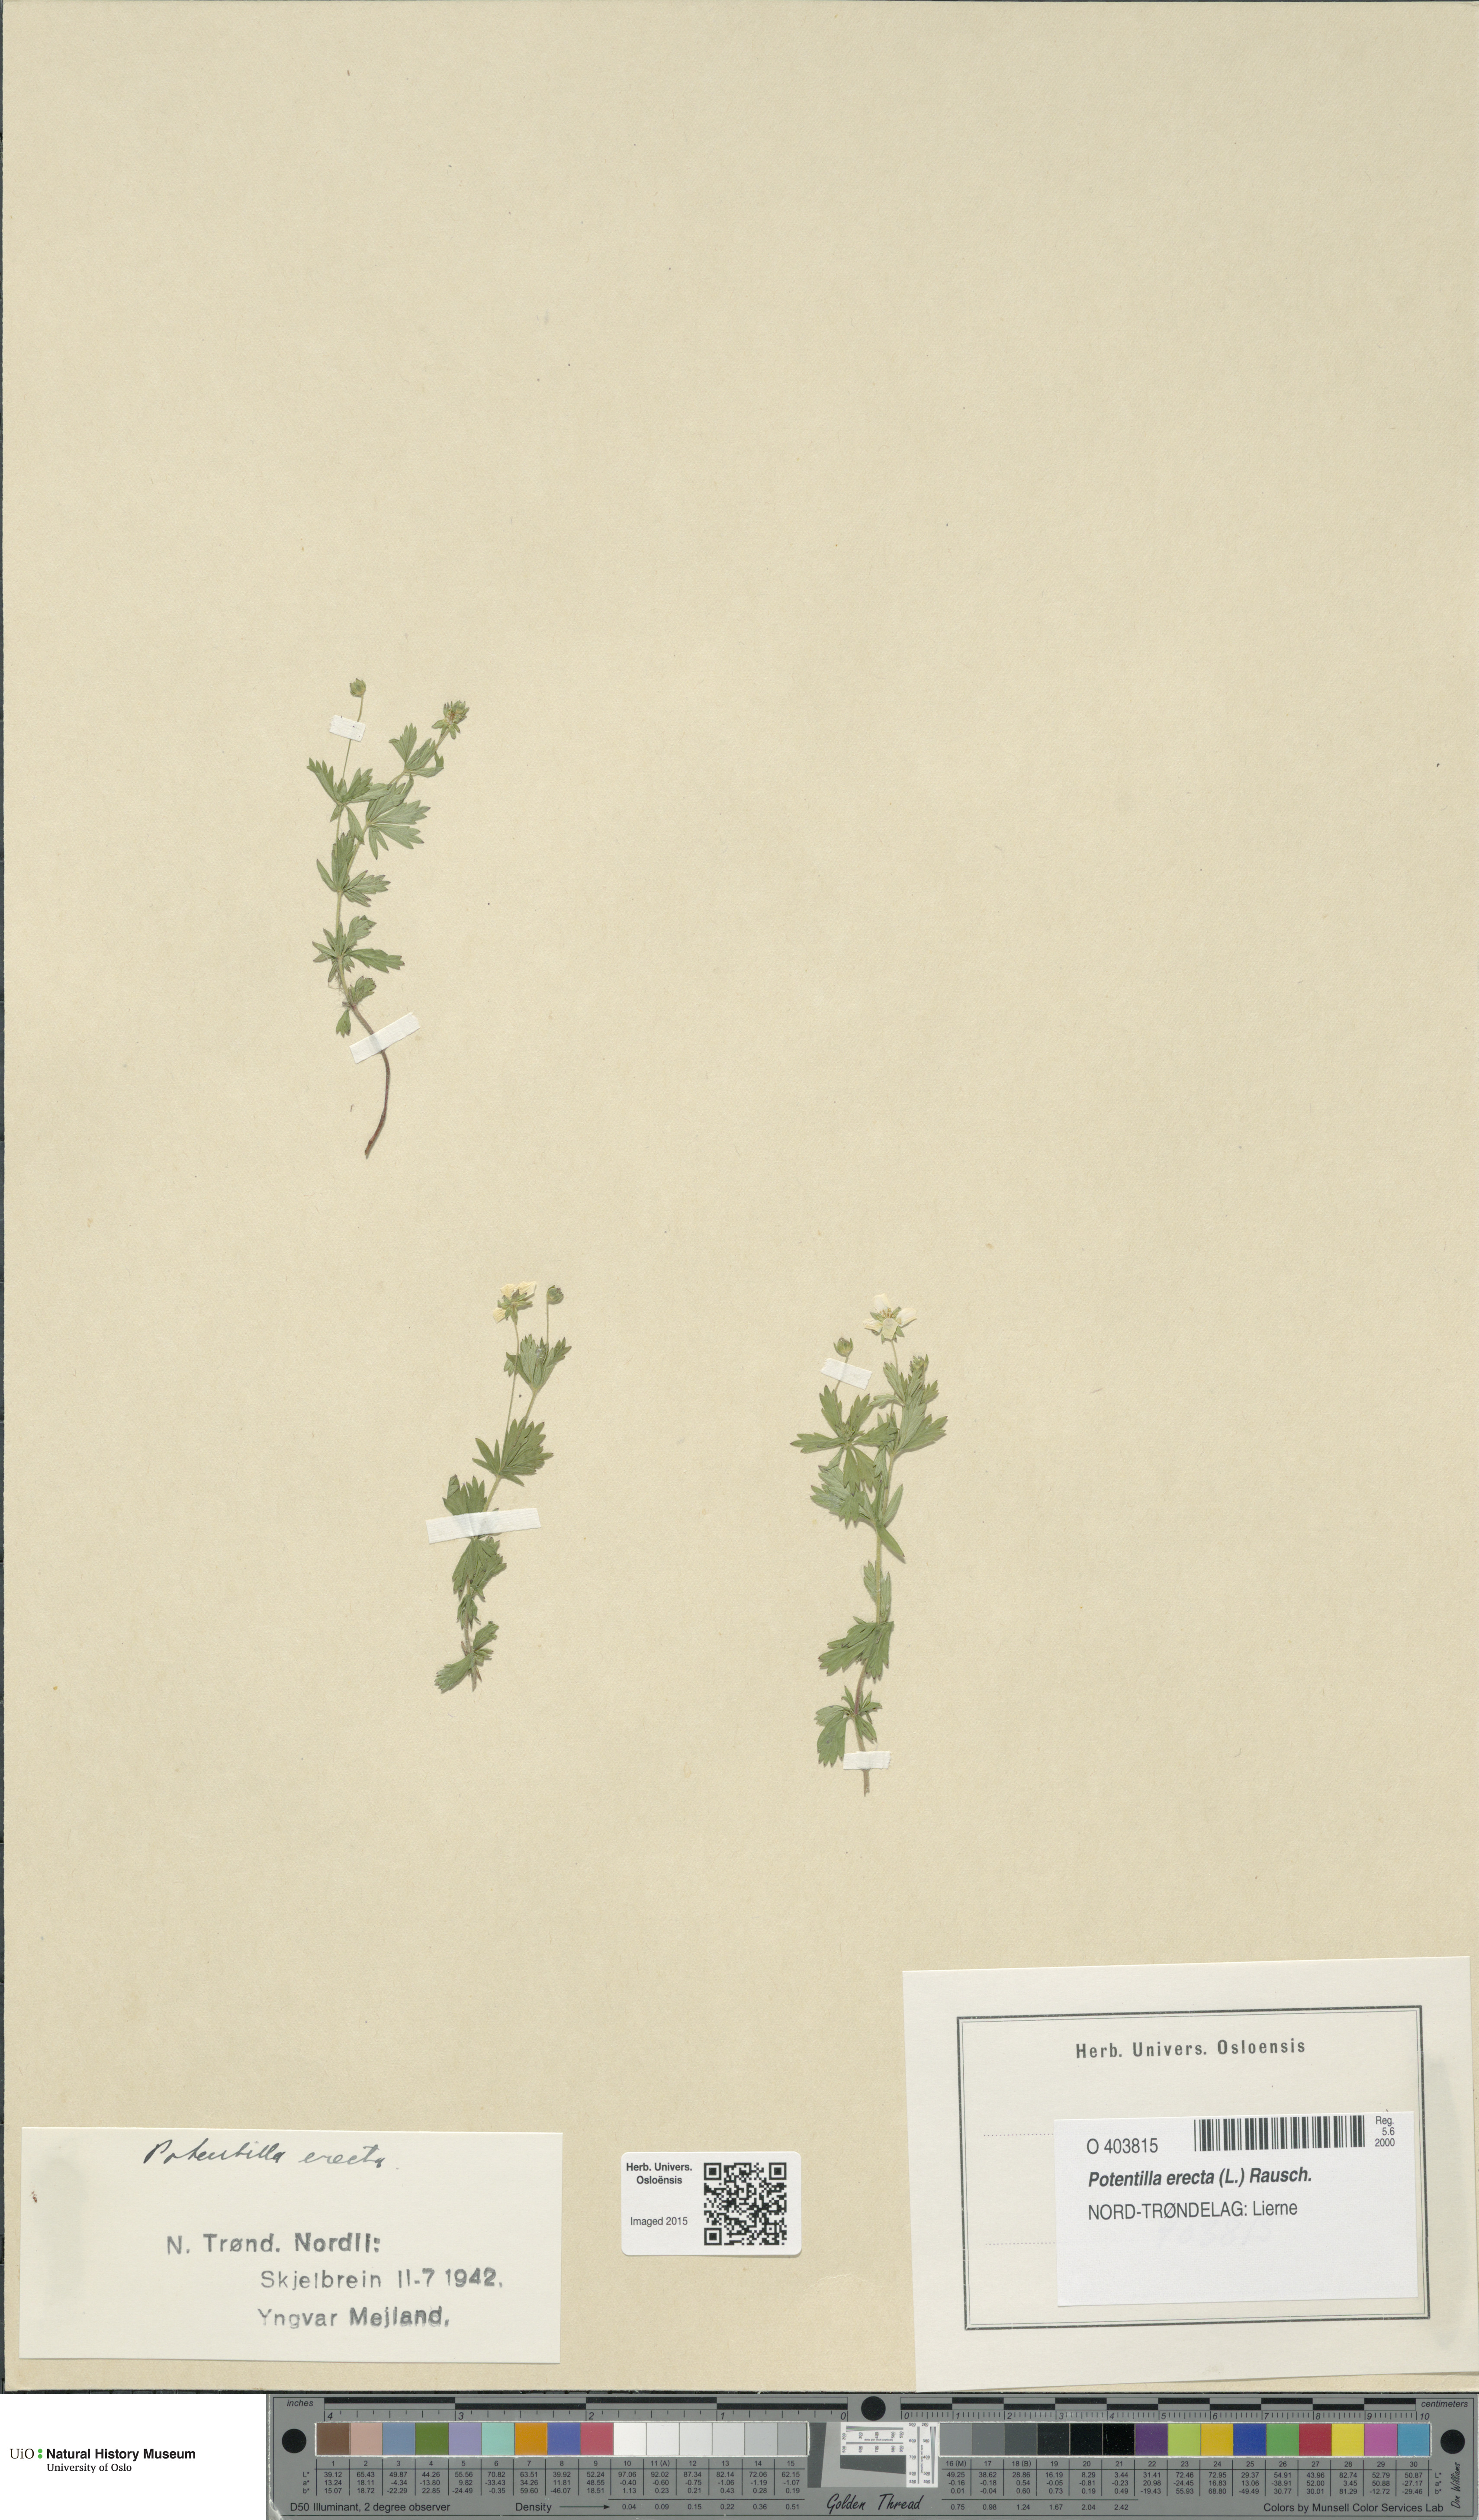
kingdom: Plantae
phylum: Tracheophyta
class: Magnoliopsida
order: Rosales
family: Rosaceae
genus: Potentilla
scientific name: Potentilla erecta
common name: Tormentil
